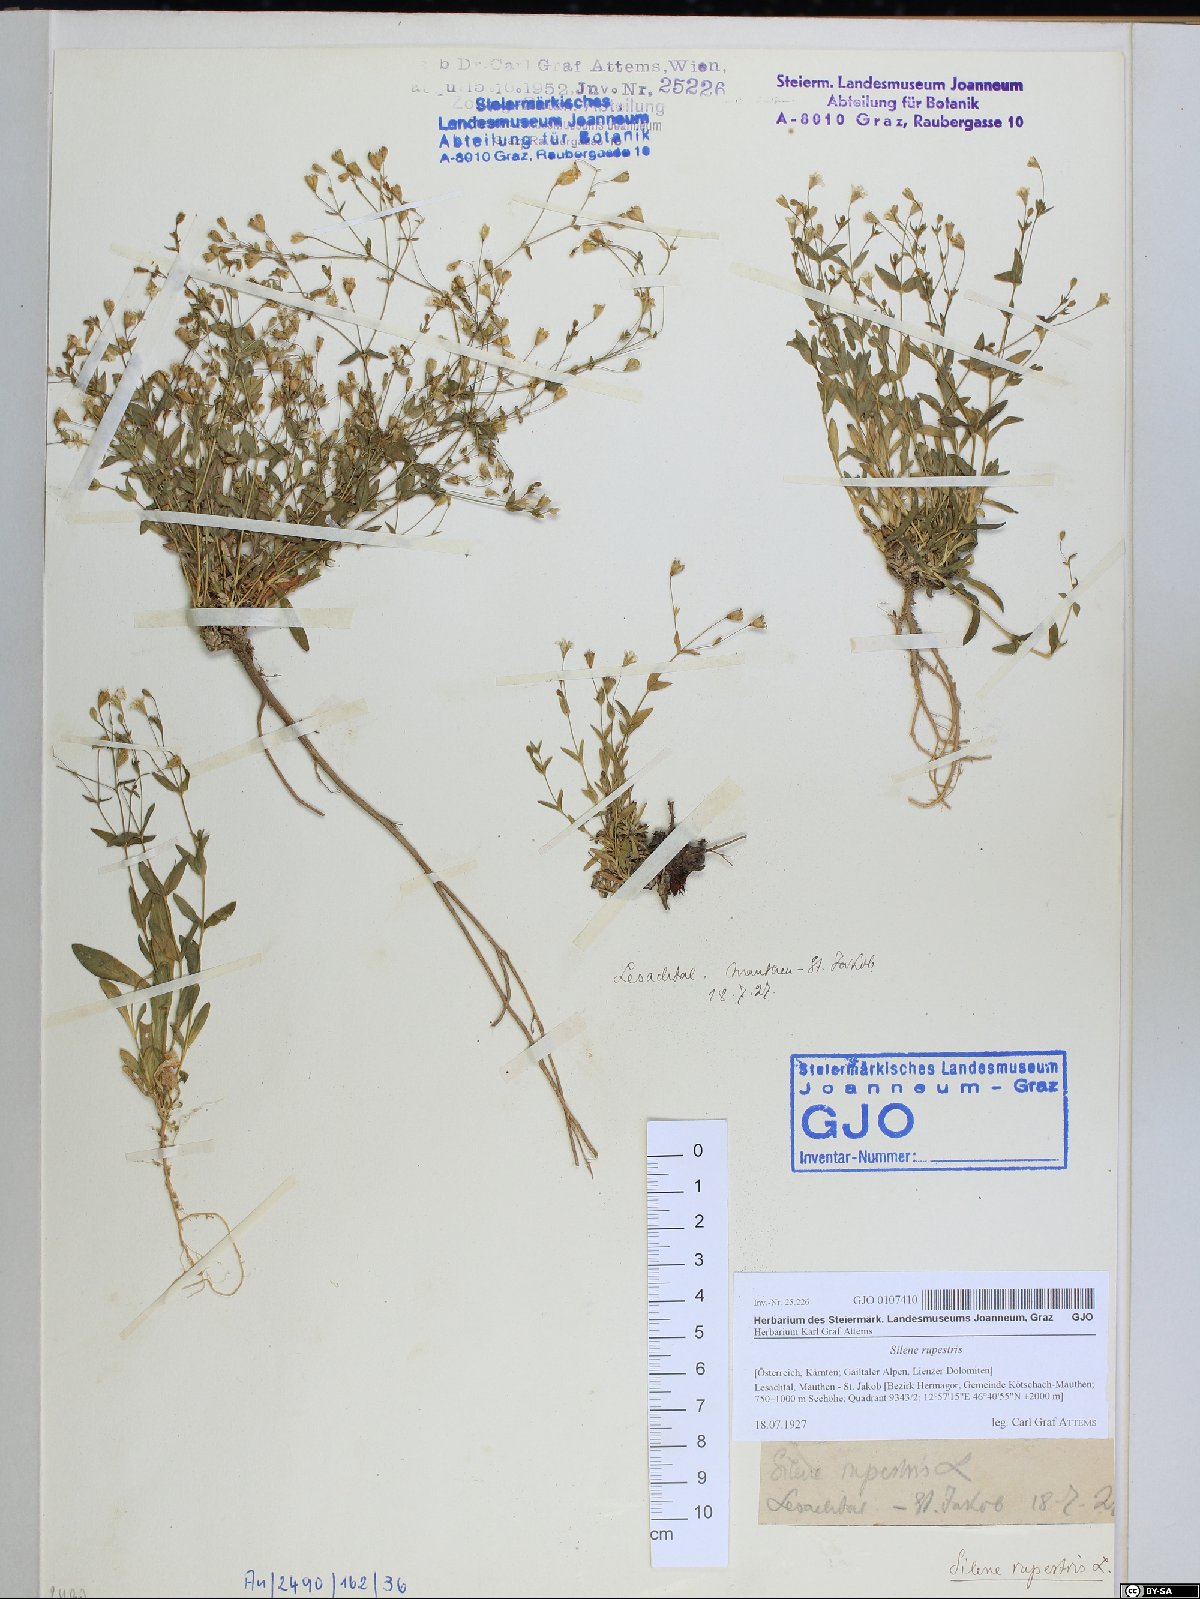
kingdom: Plantae
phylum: Tracheophyta
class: Magnoliopsida
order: Caryophyllales
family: Caryophyllaceae
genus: Atocion
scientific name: Atocion rupestre
